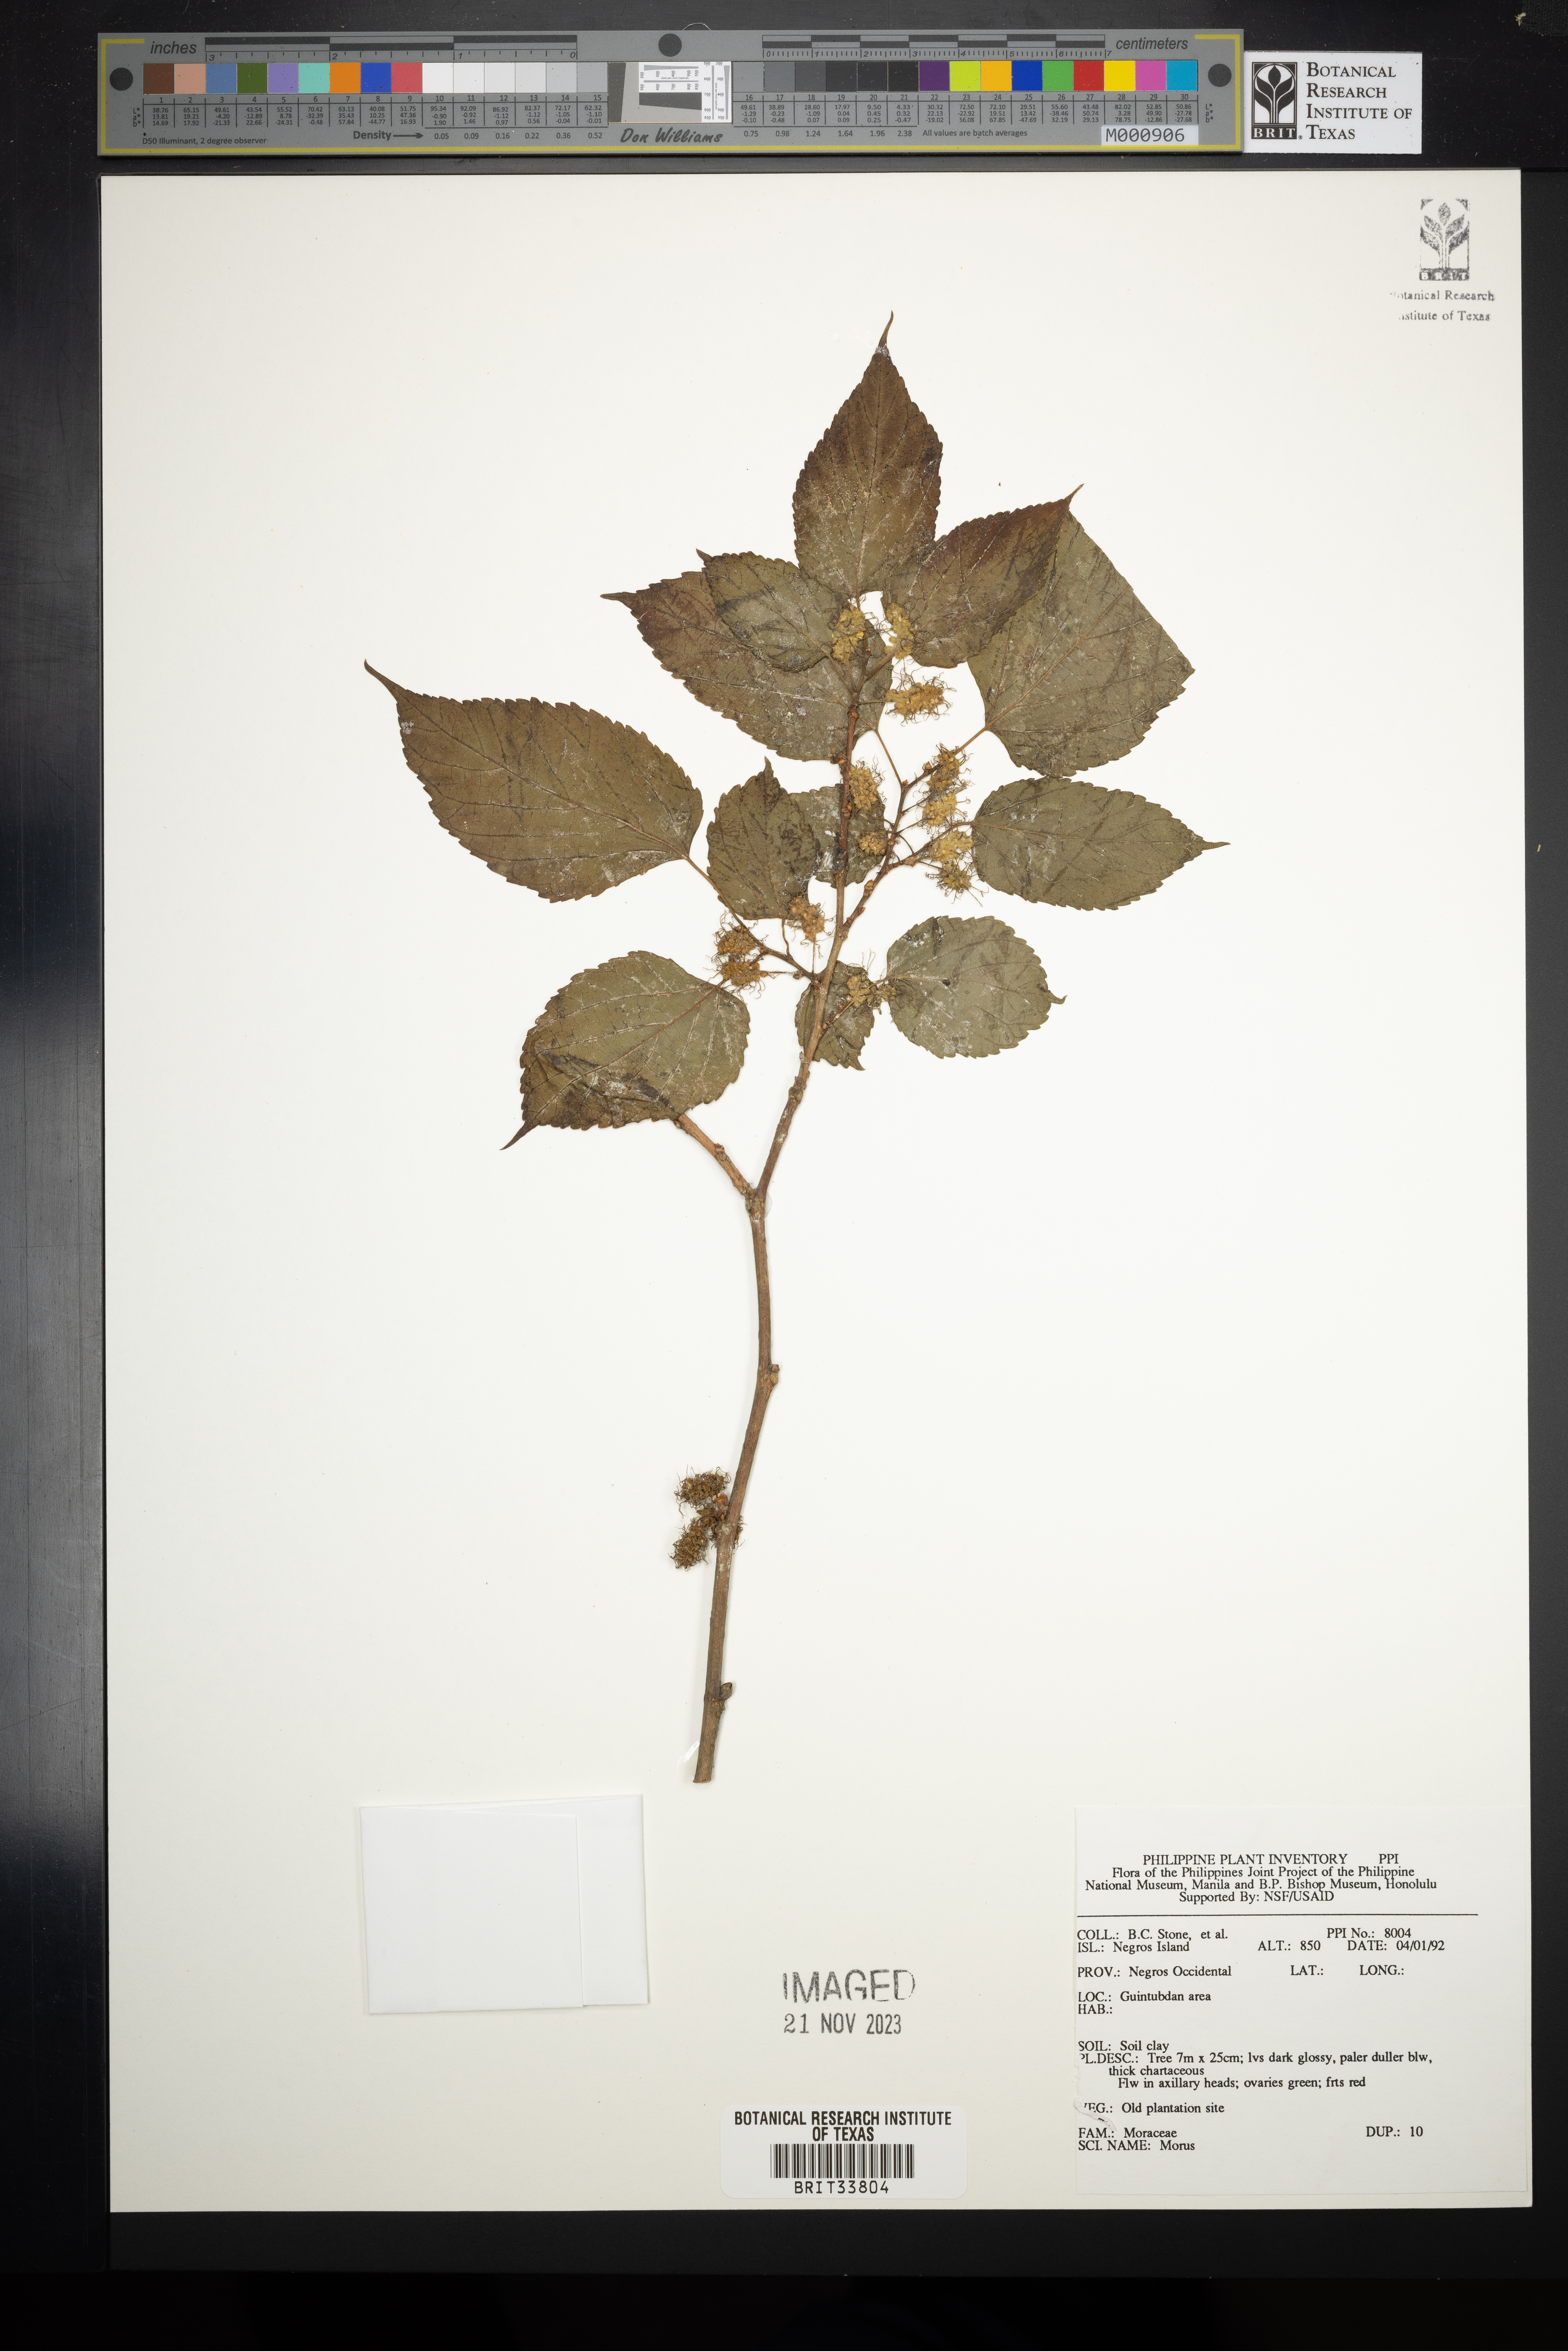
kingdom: Plantae
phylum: Tracheophyta
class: Magnoliopsida
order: Rosales
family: Moraceae
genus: Morus
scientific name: Morus
